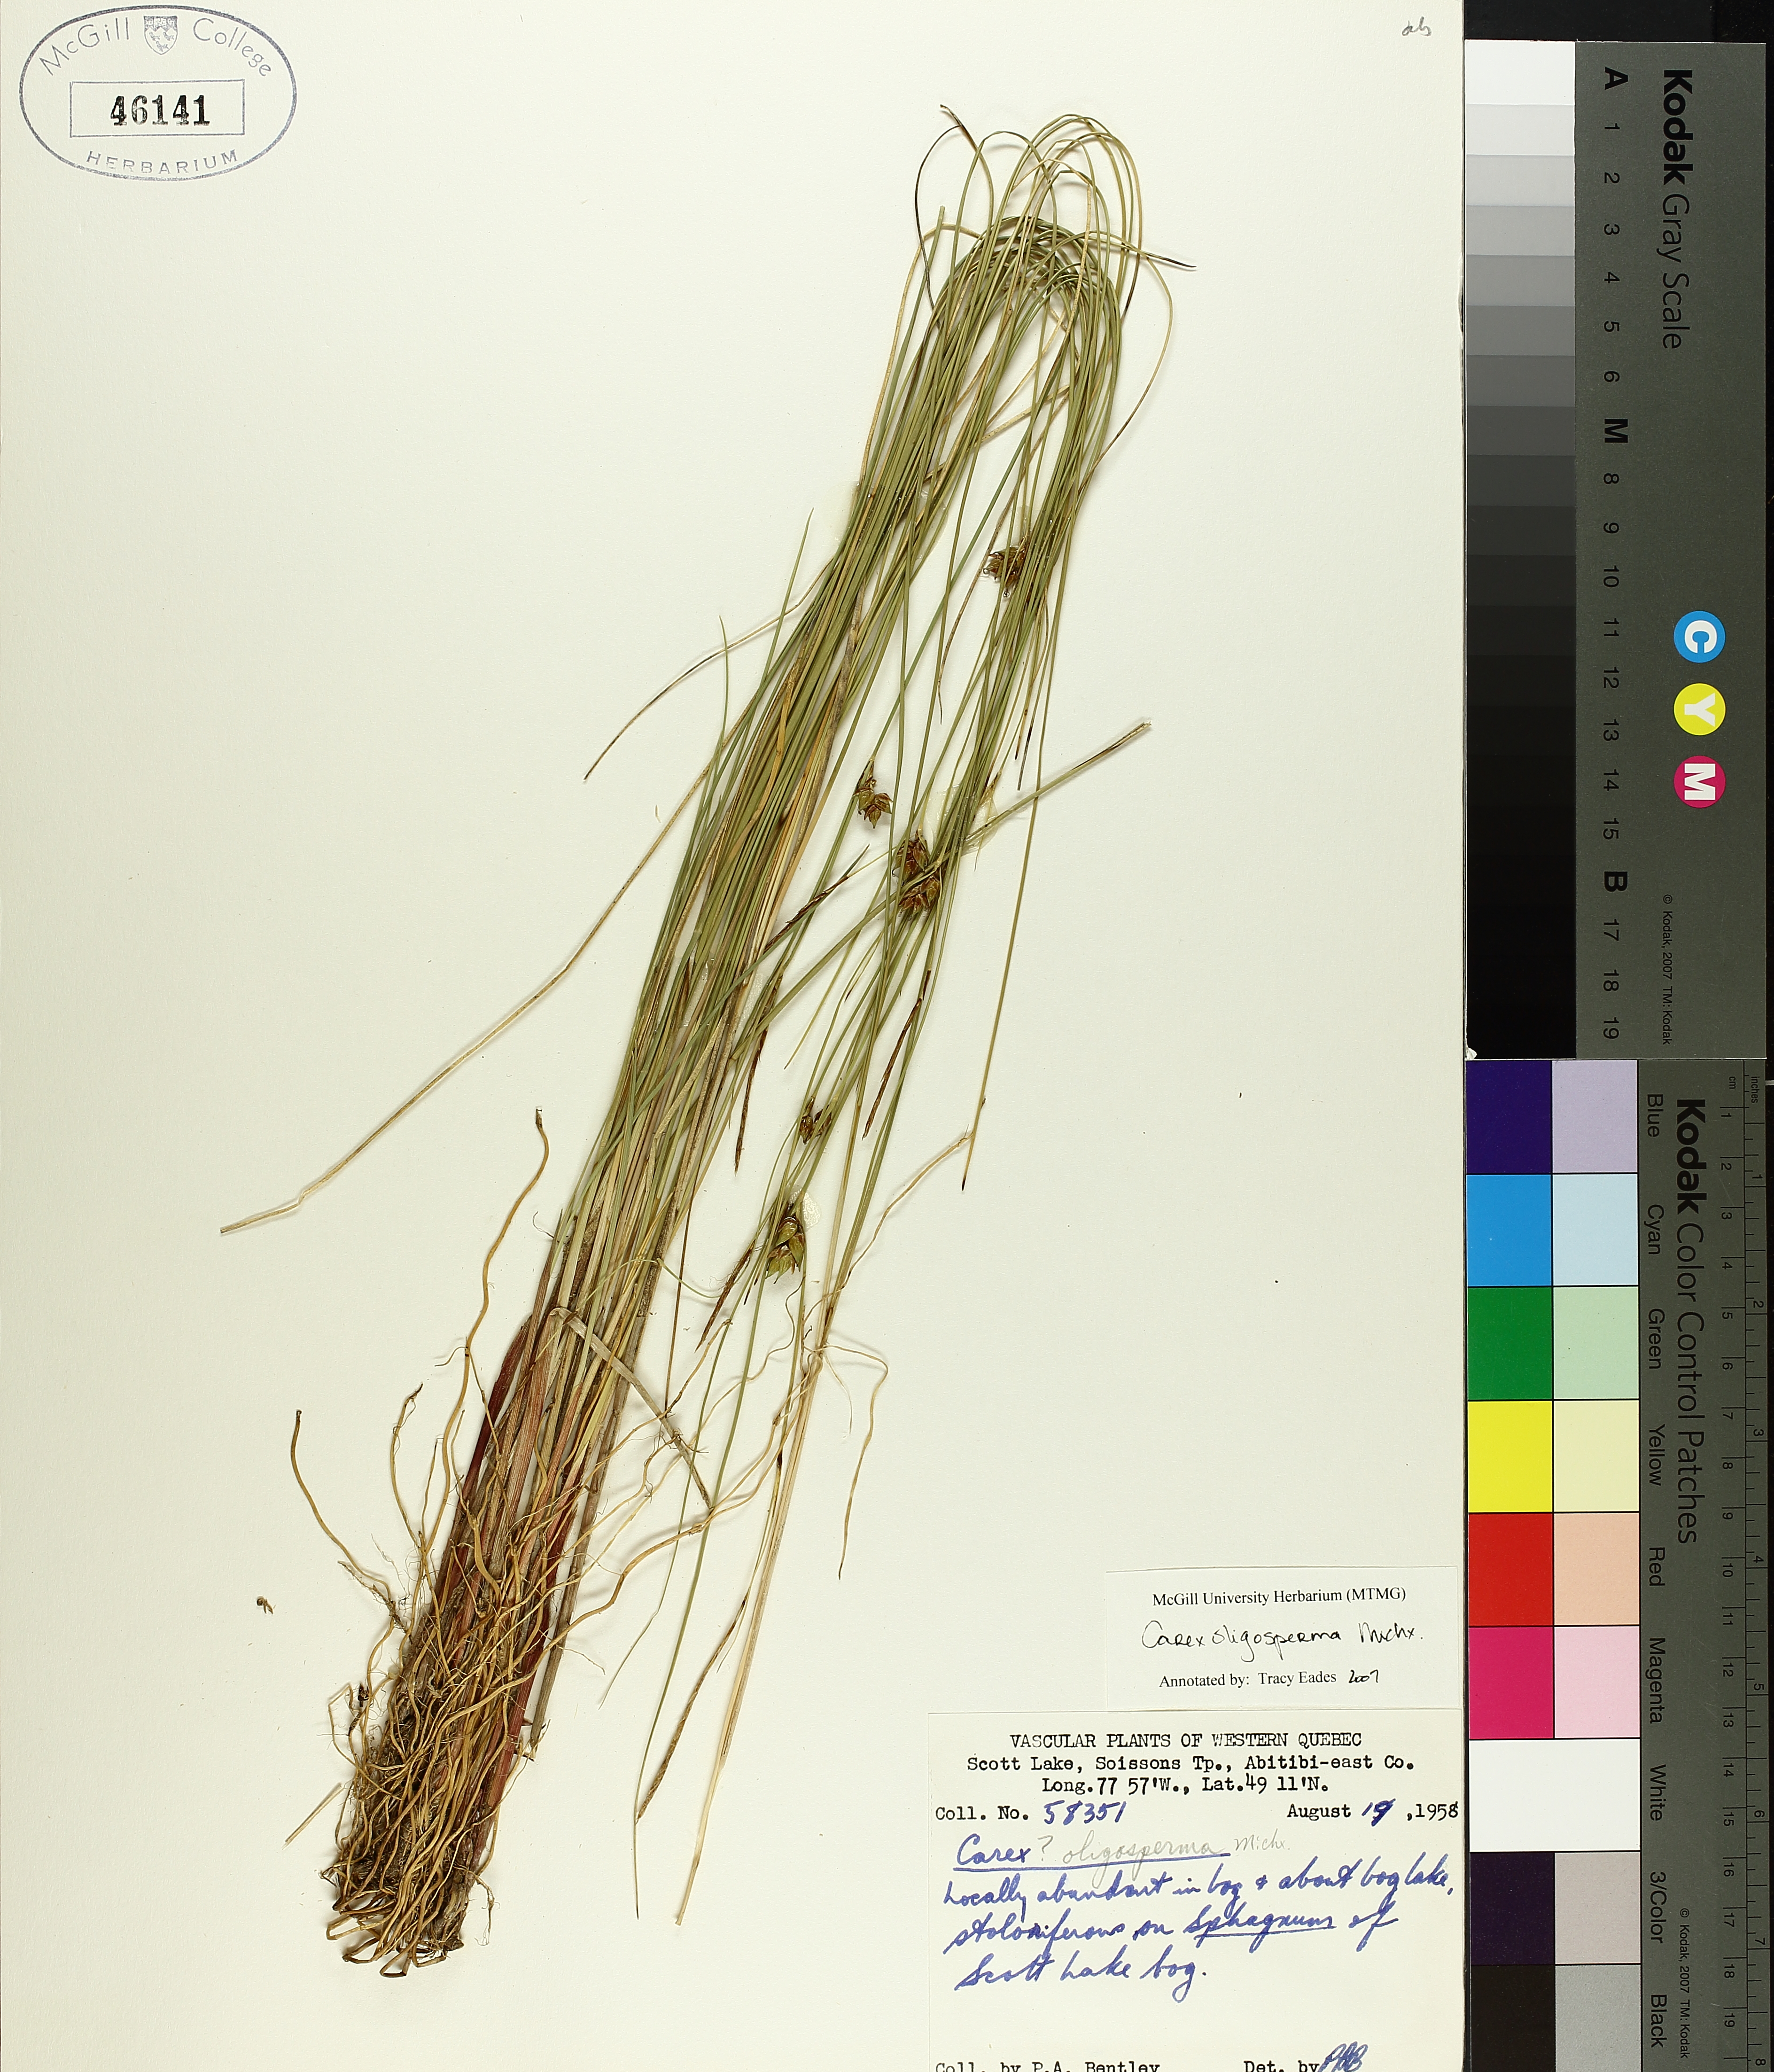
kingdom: Plantae
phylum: Tracheophyta
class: Liliopsida
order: Poales
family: Cyperaceae
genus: Carex
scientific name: Carex oligosperma
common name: Few-seed sedge
